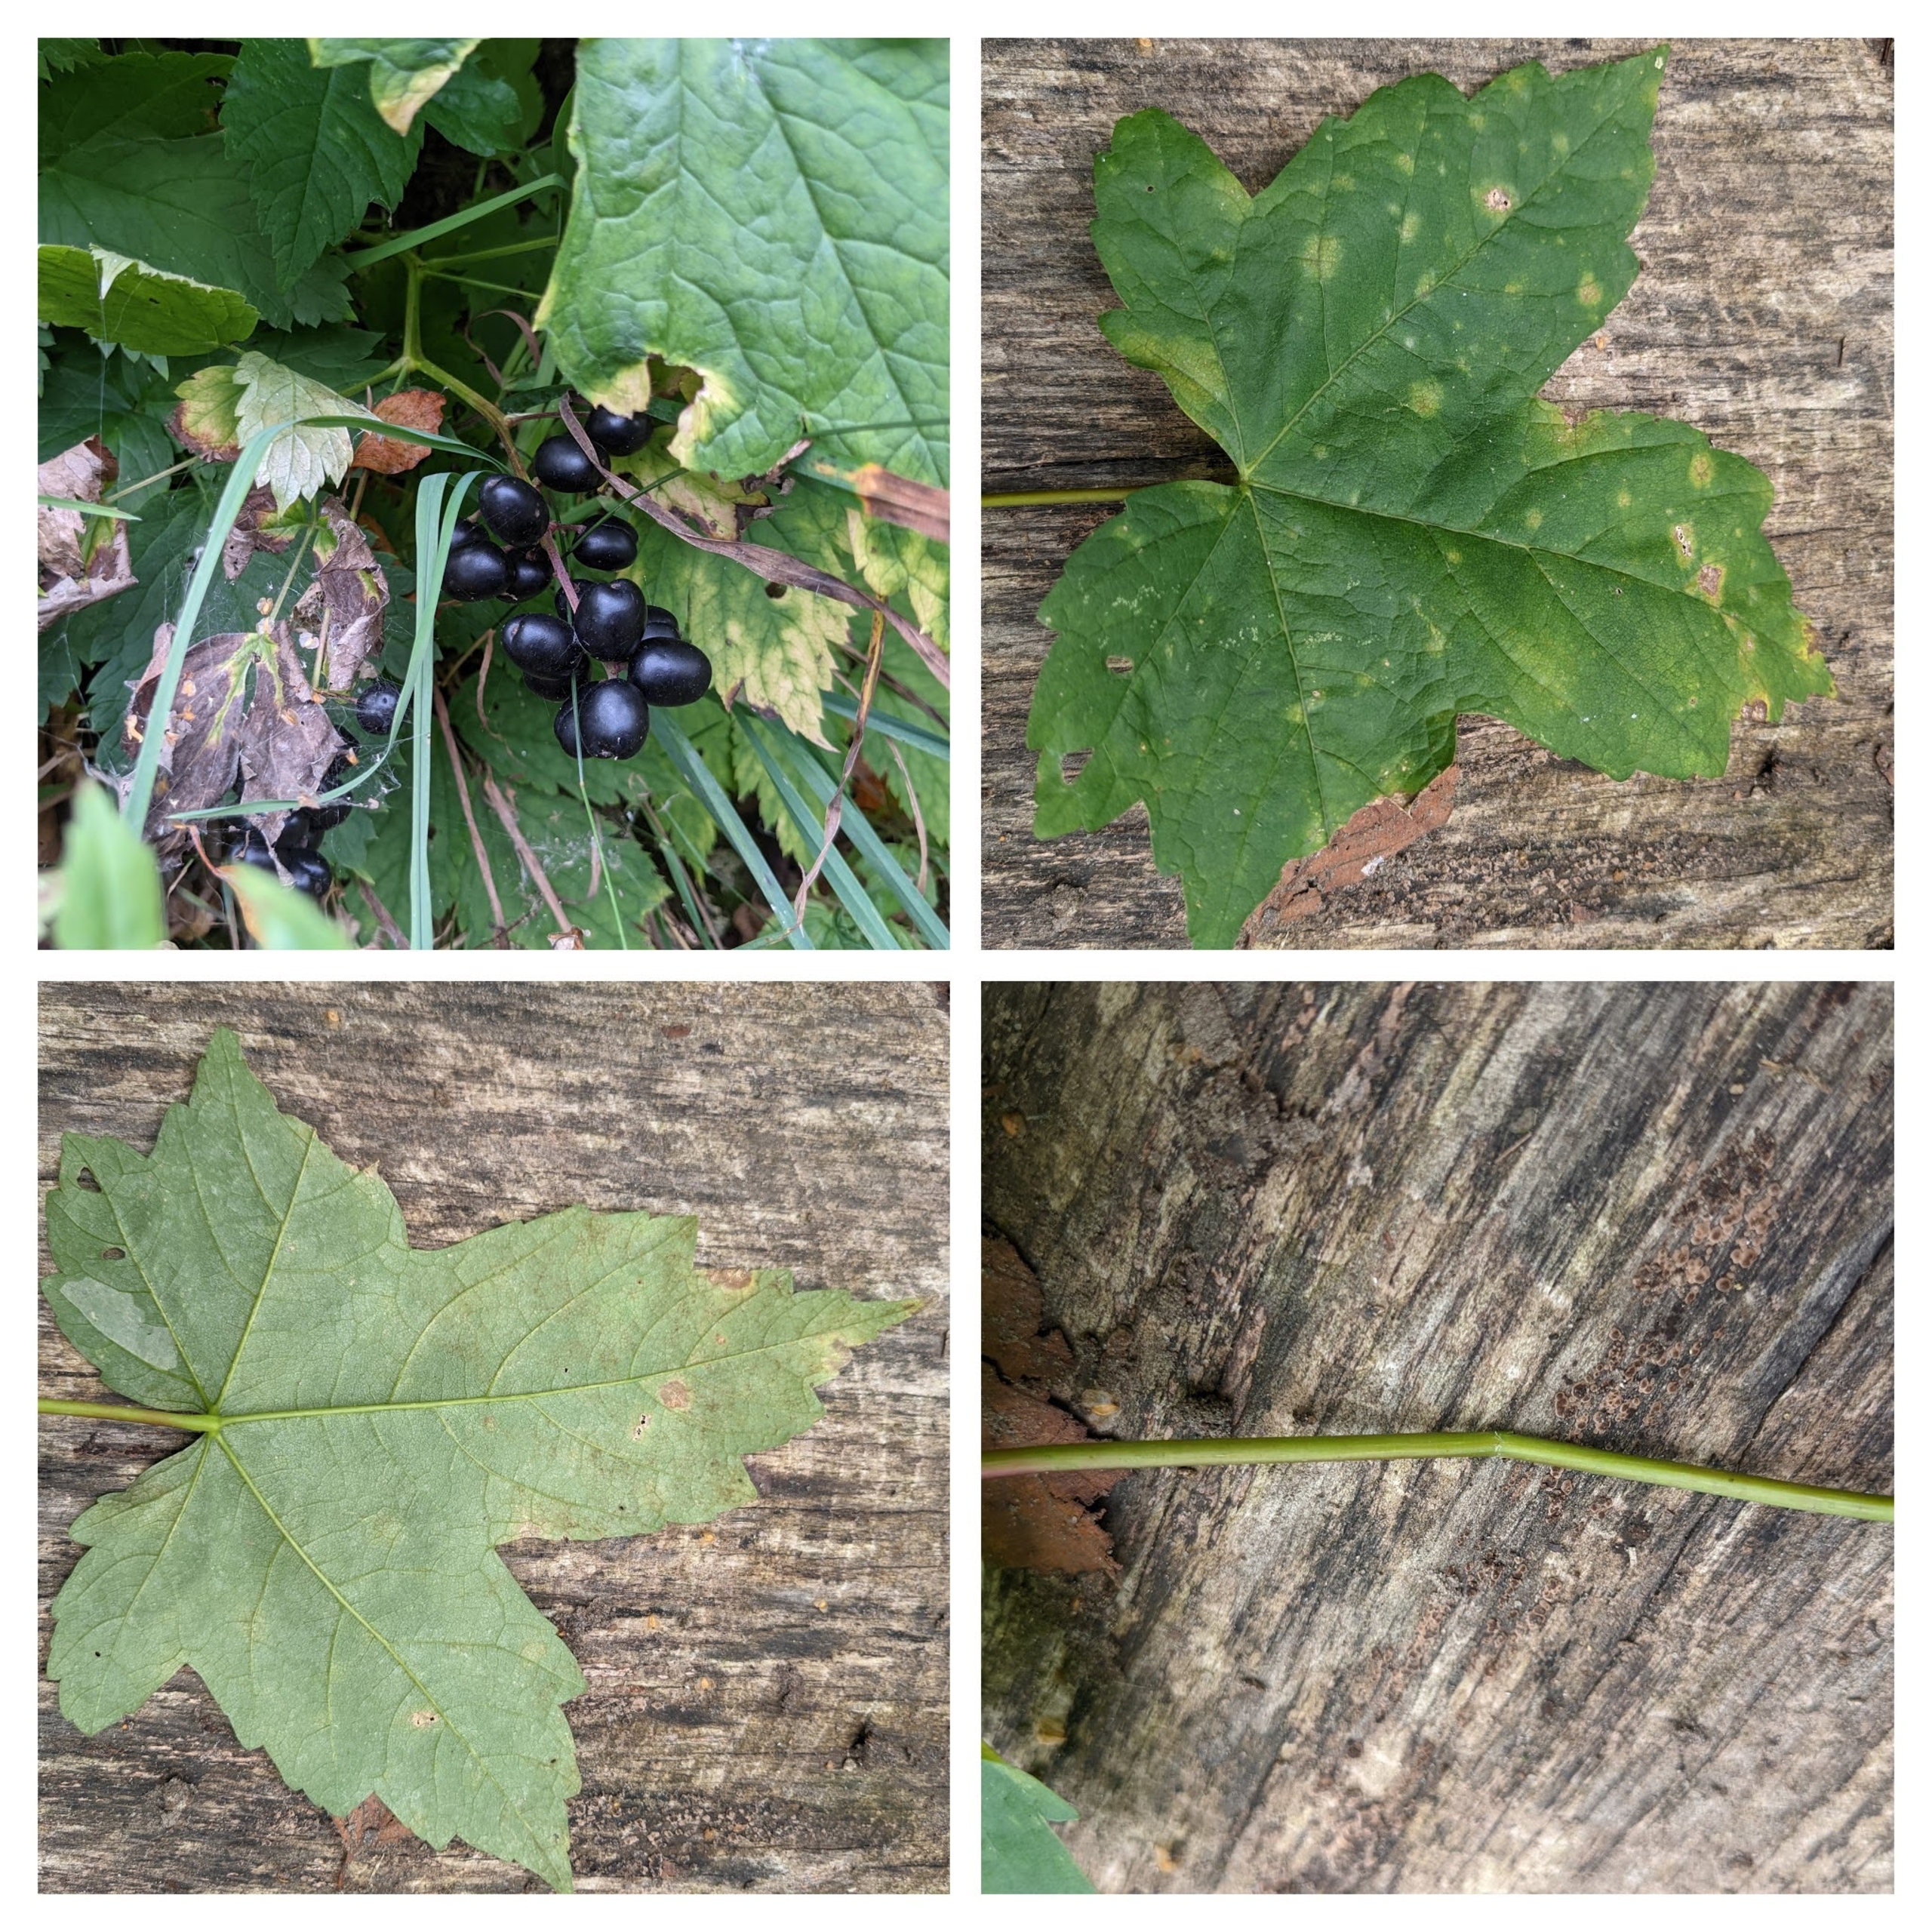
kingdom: Plantae
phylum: Tracheophyta
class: Magnoliopsida
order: Sapindales
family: Sapindaceae
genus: Acer
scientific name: Acer pseudoplatanus
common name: Ahorn
